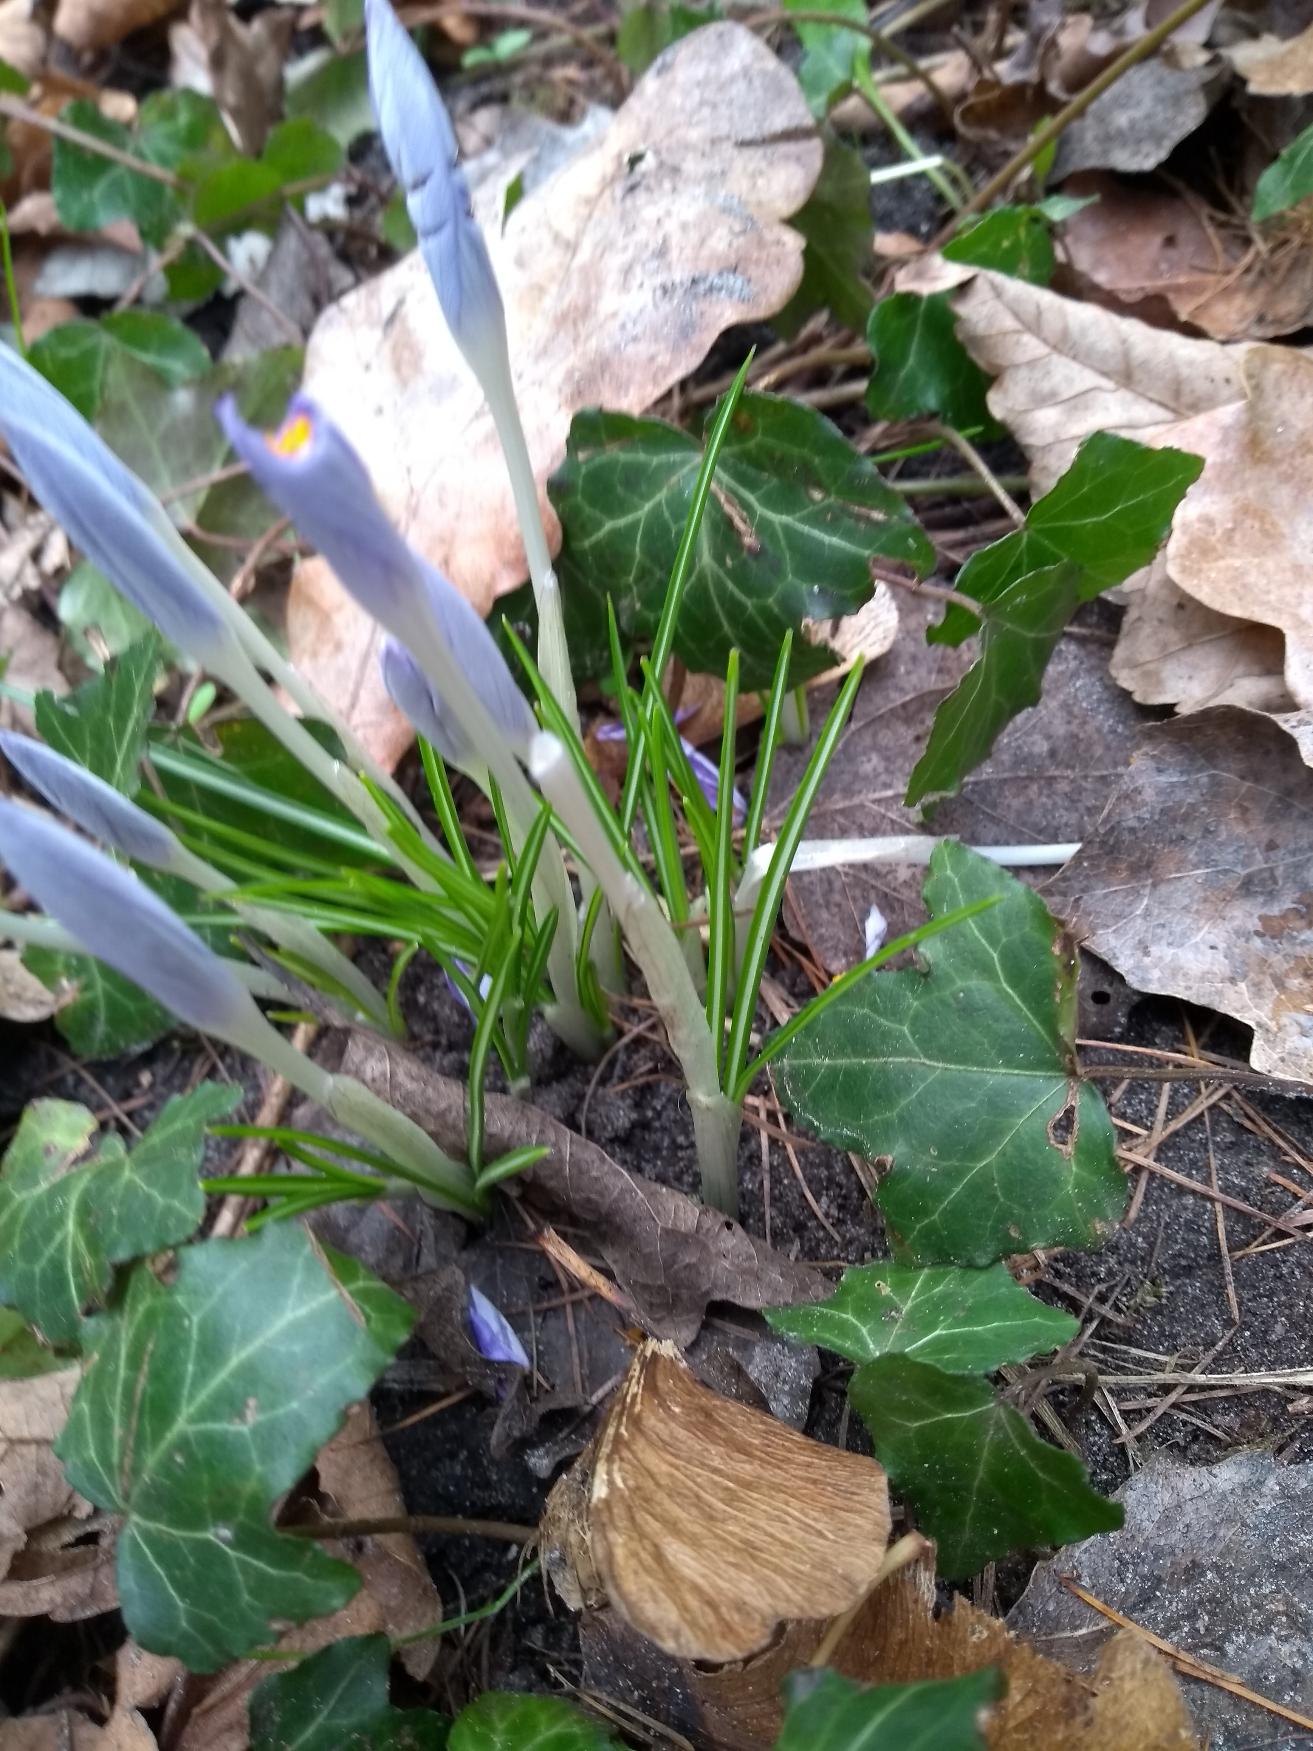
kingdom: Plantae
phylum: Tracheophyta
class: Liliopsida
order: Asparagales
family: Iridaceae
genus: Crocus
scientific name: Crocus tommasinianus
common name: Sne-krokus
